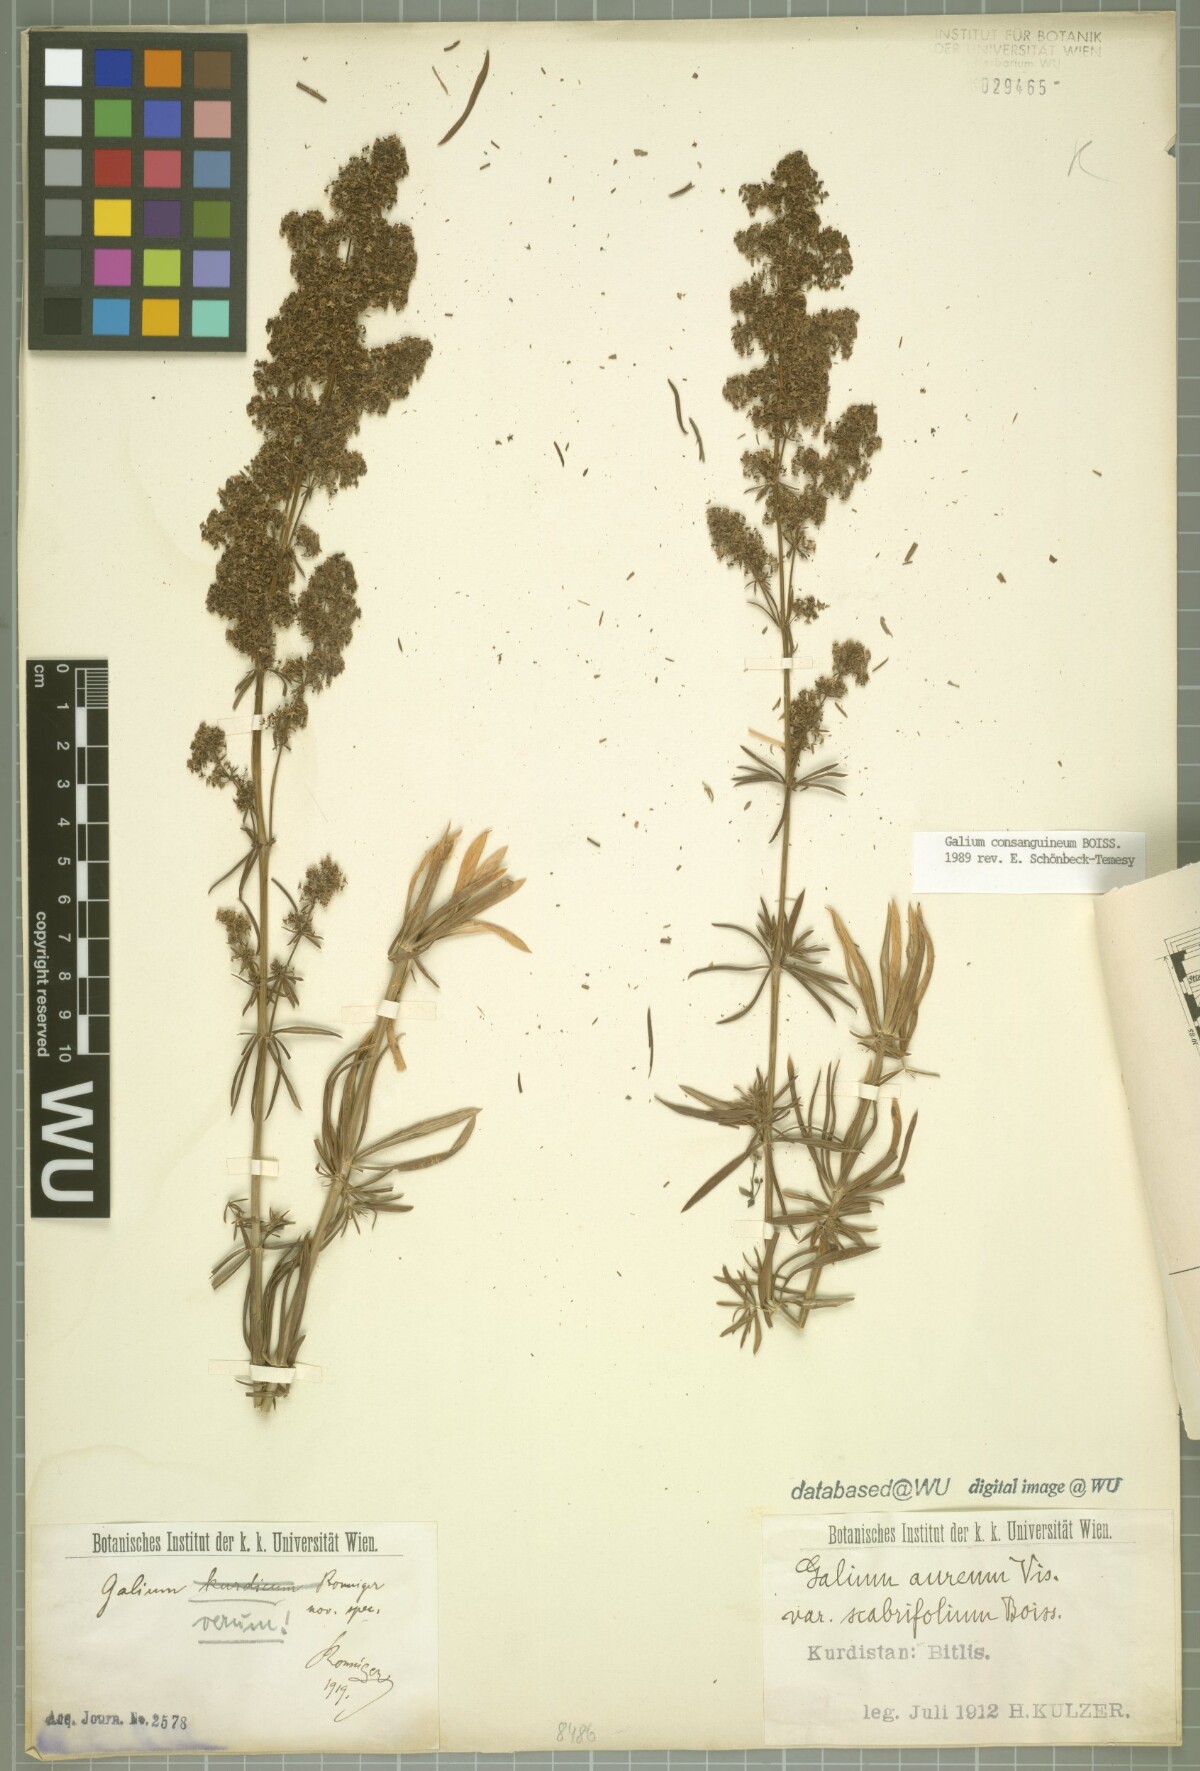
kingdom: Plantae
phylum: Tracheophyta
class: Magnoliopsida
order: Gentianales
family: Rubiaceae
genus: Galium
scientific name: Galium consanguineum
